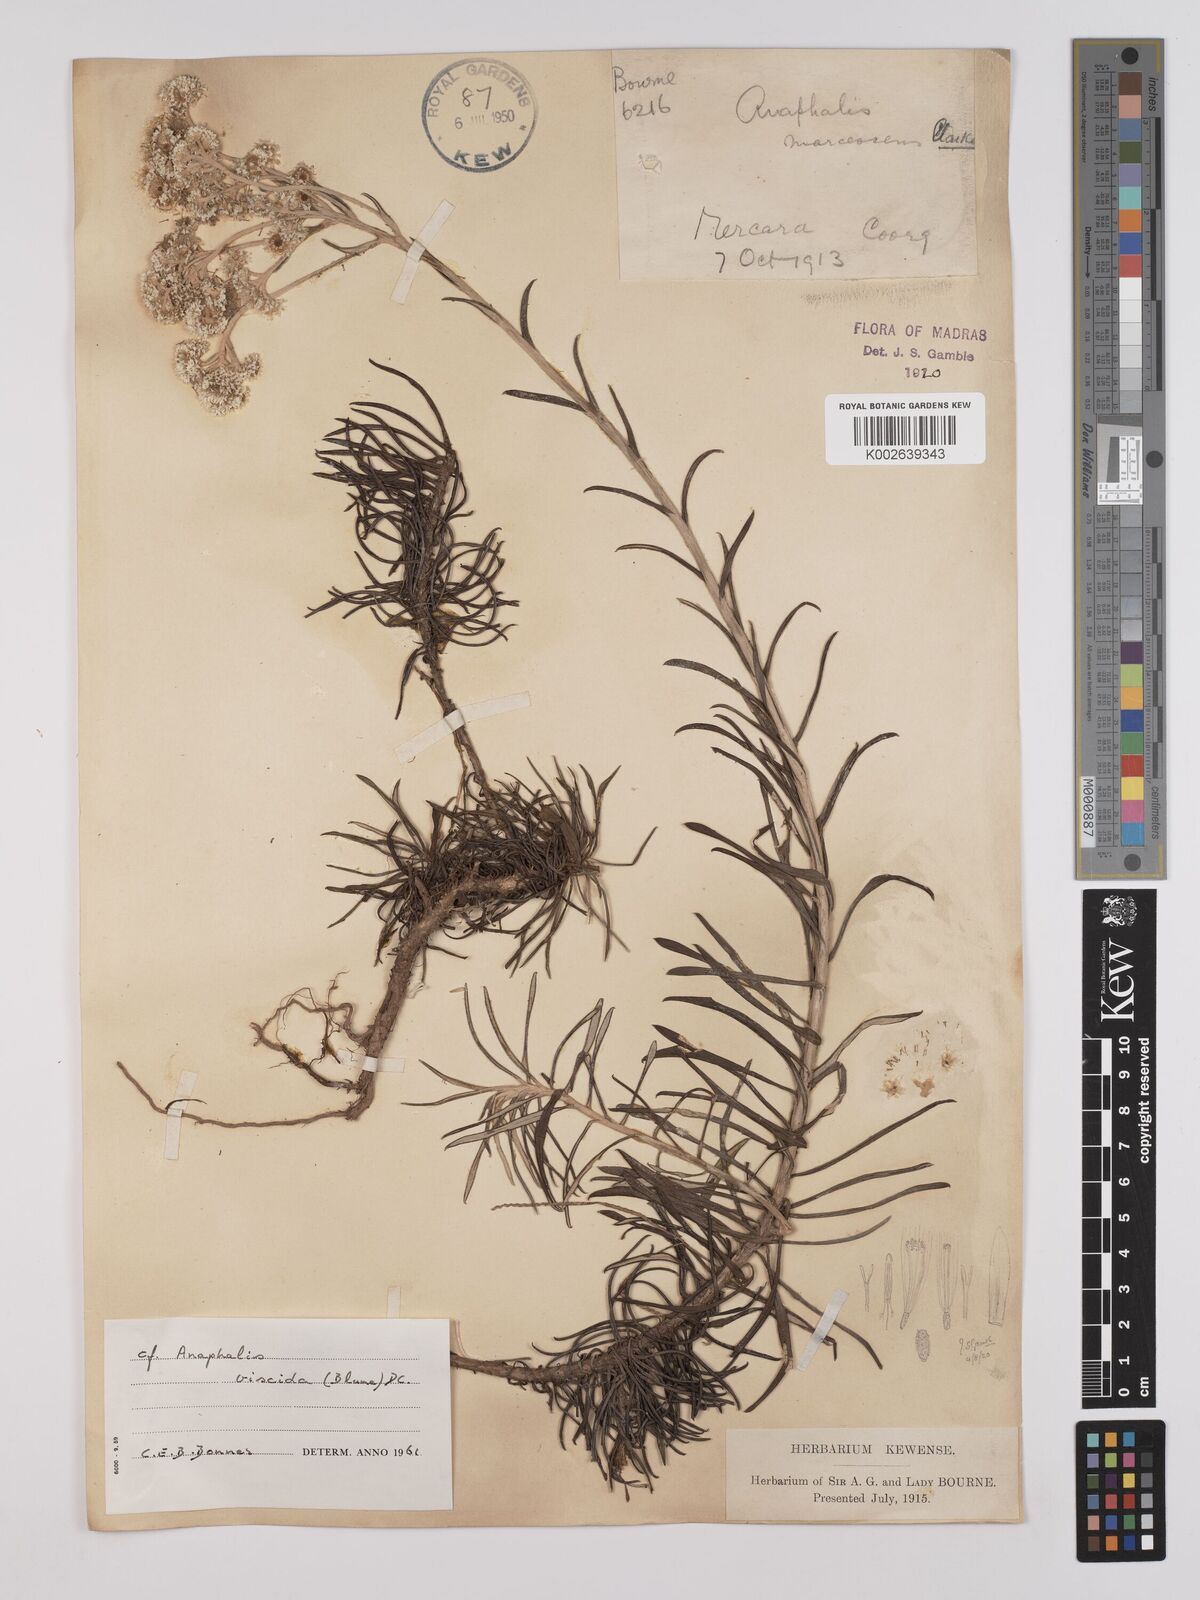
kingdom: Plantae
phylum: Tracheophyta
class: Magnoliopsida
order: Asterales
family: Asteraceae
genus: Anaphalis
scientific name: Anaphalis marcescens
